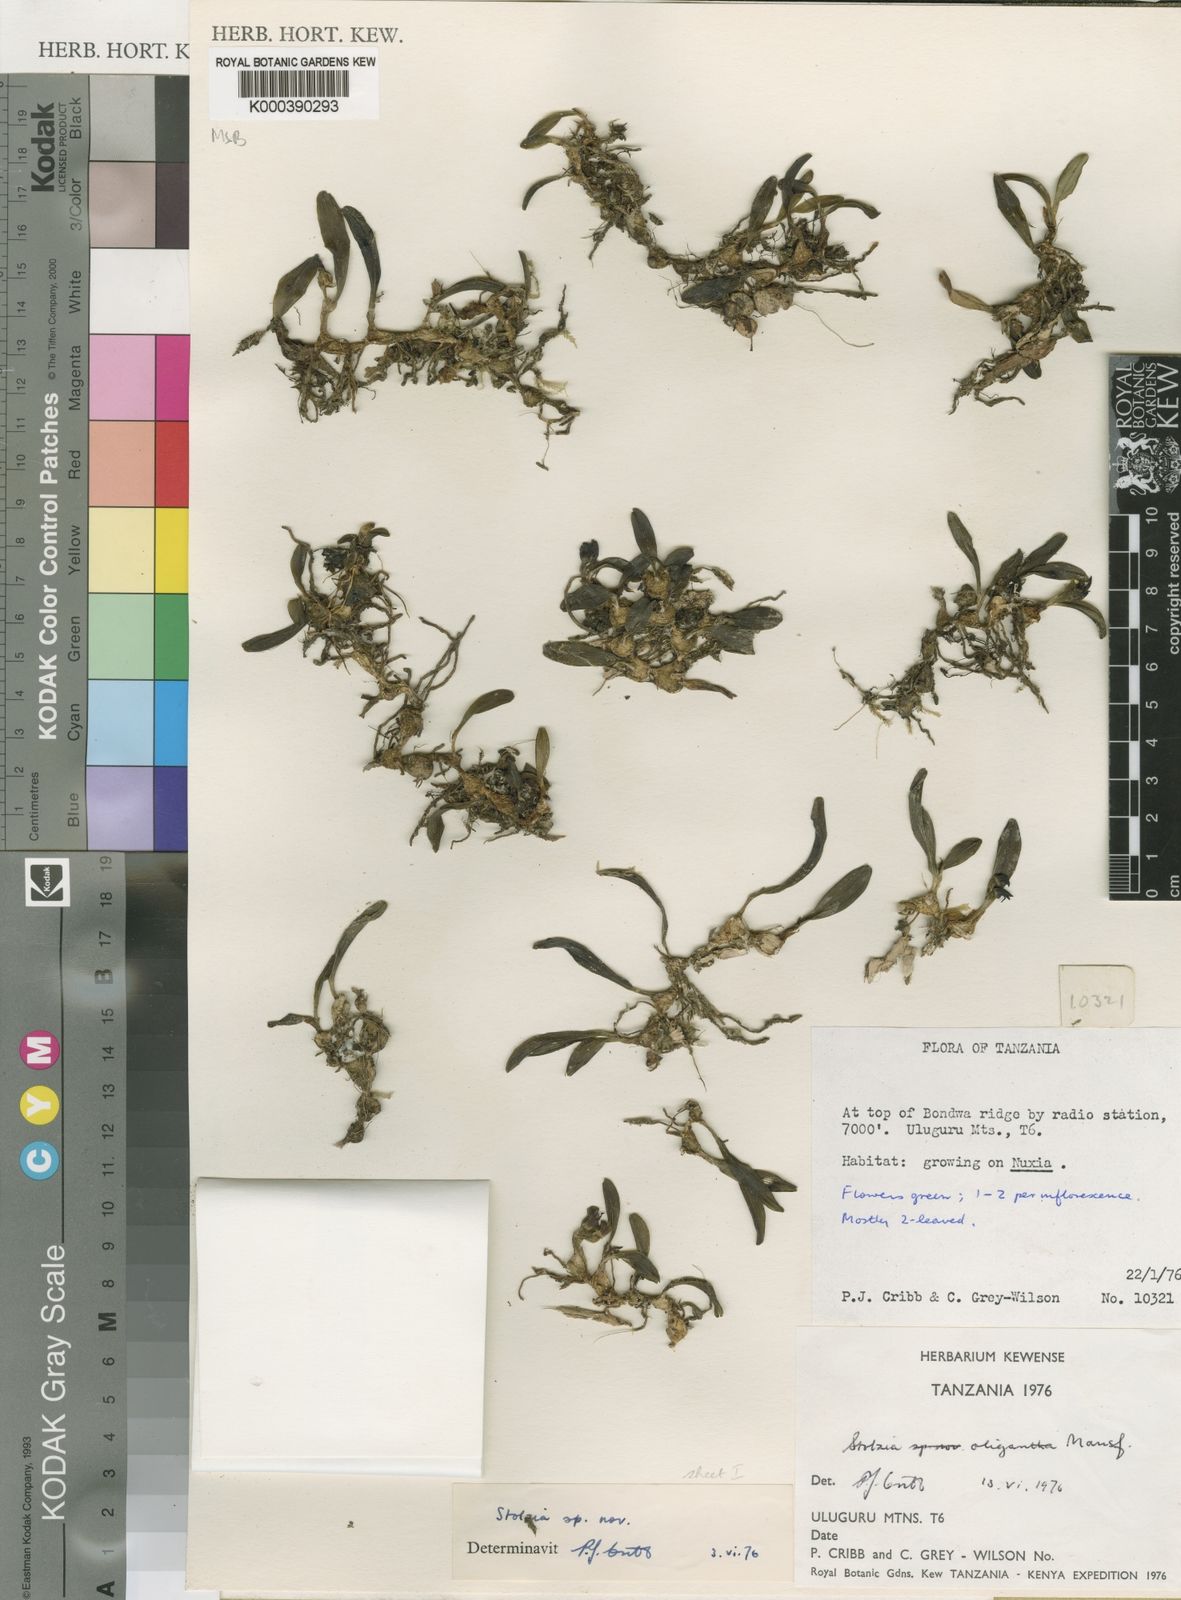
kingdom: Plantae
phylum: Tracheophyta
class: Liliopsida
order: Asparagales
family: Orchidaceae
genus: Porpax
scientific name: Porpax oligantha
